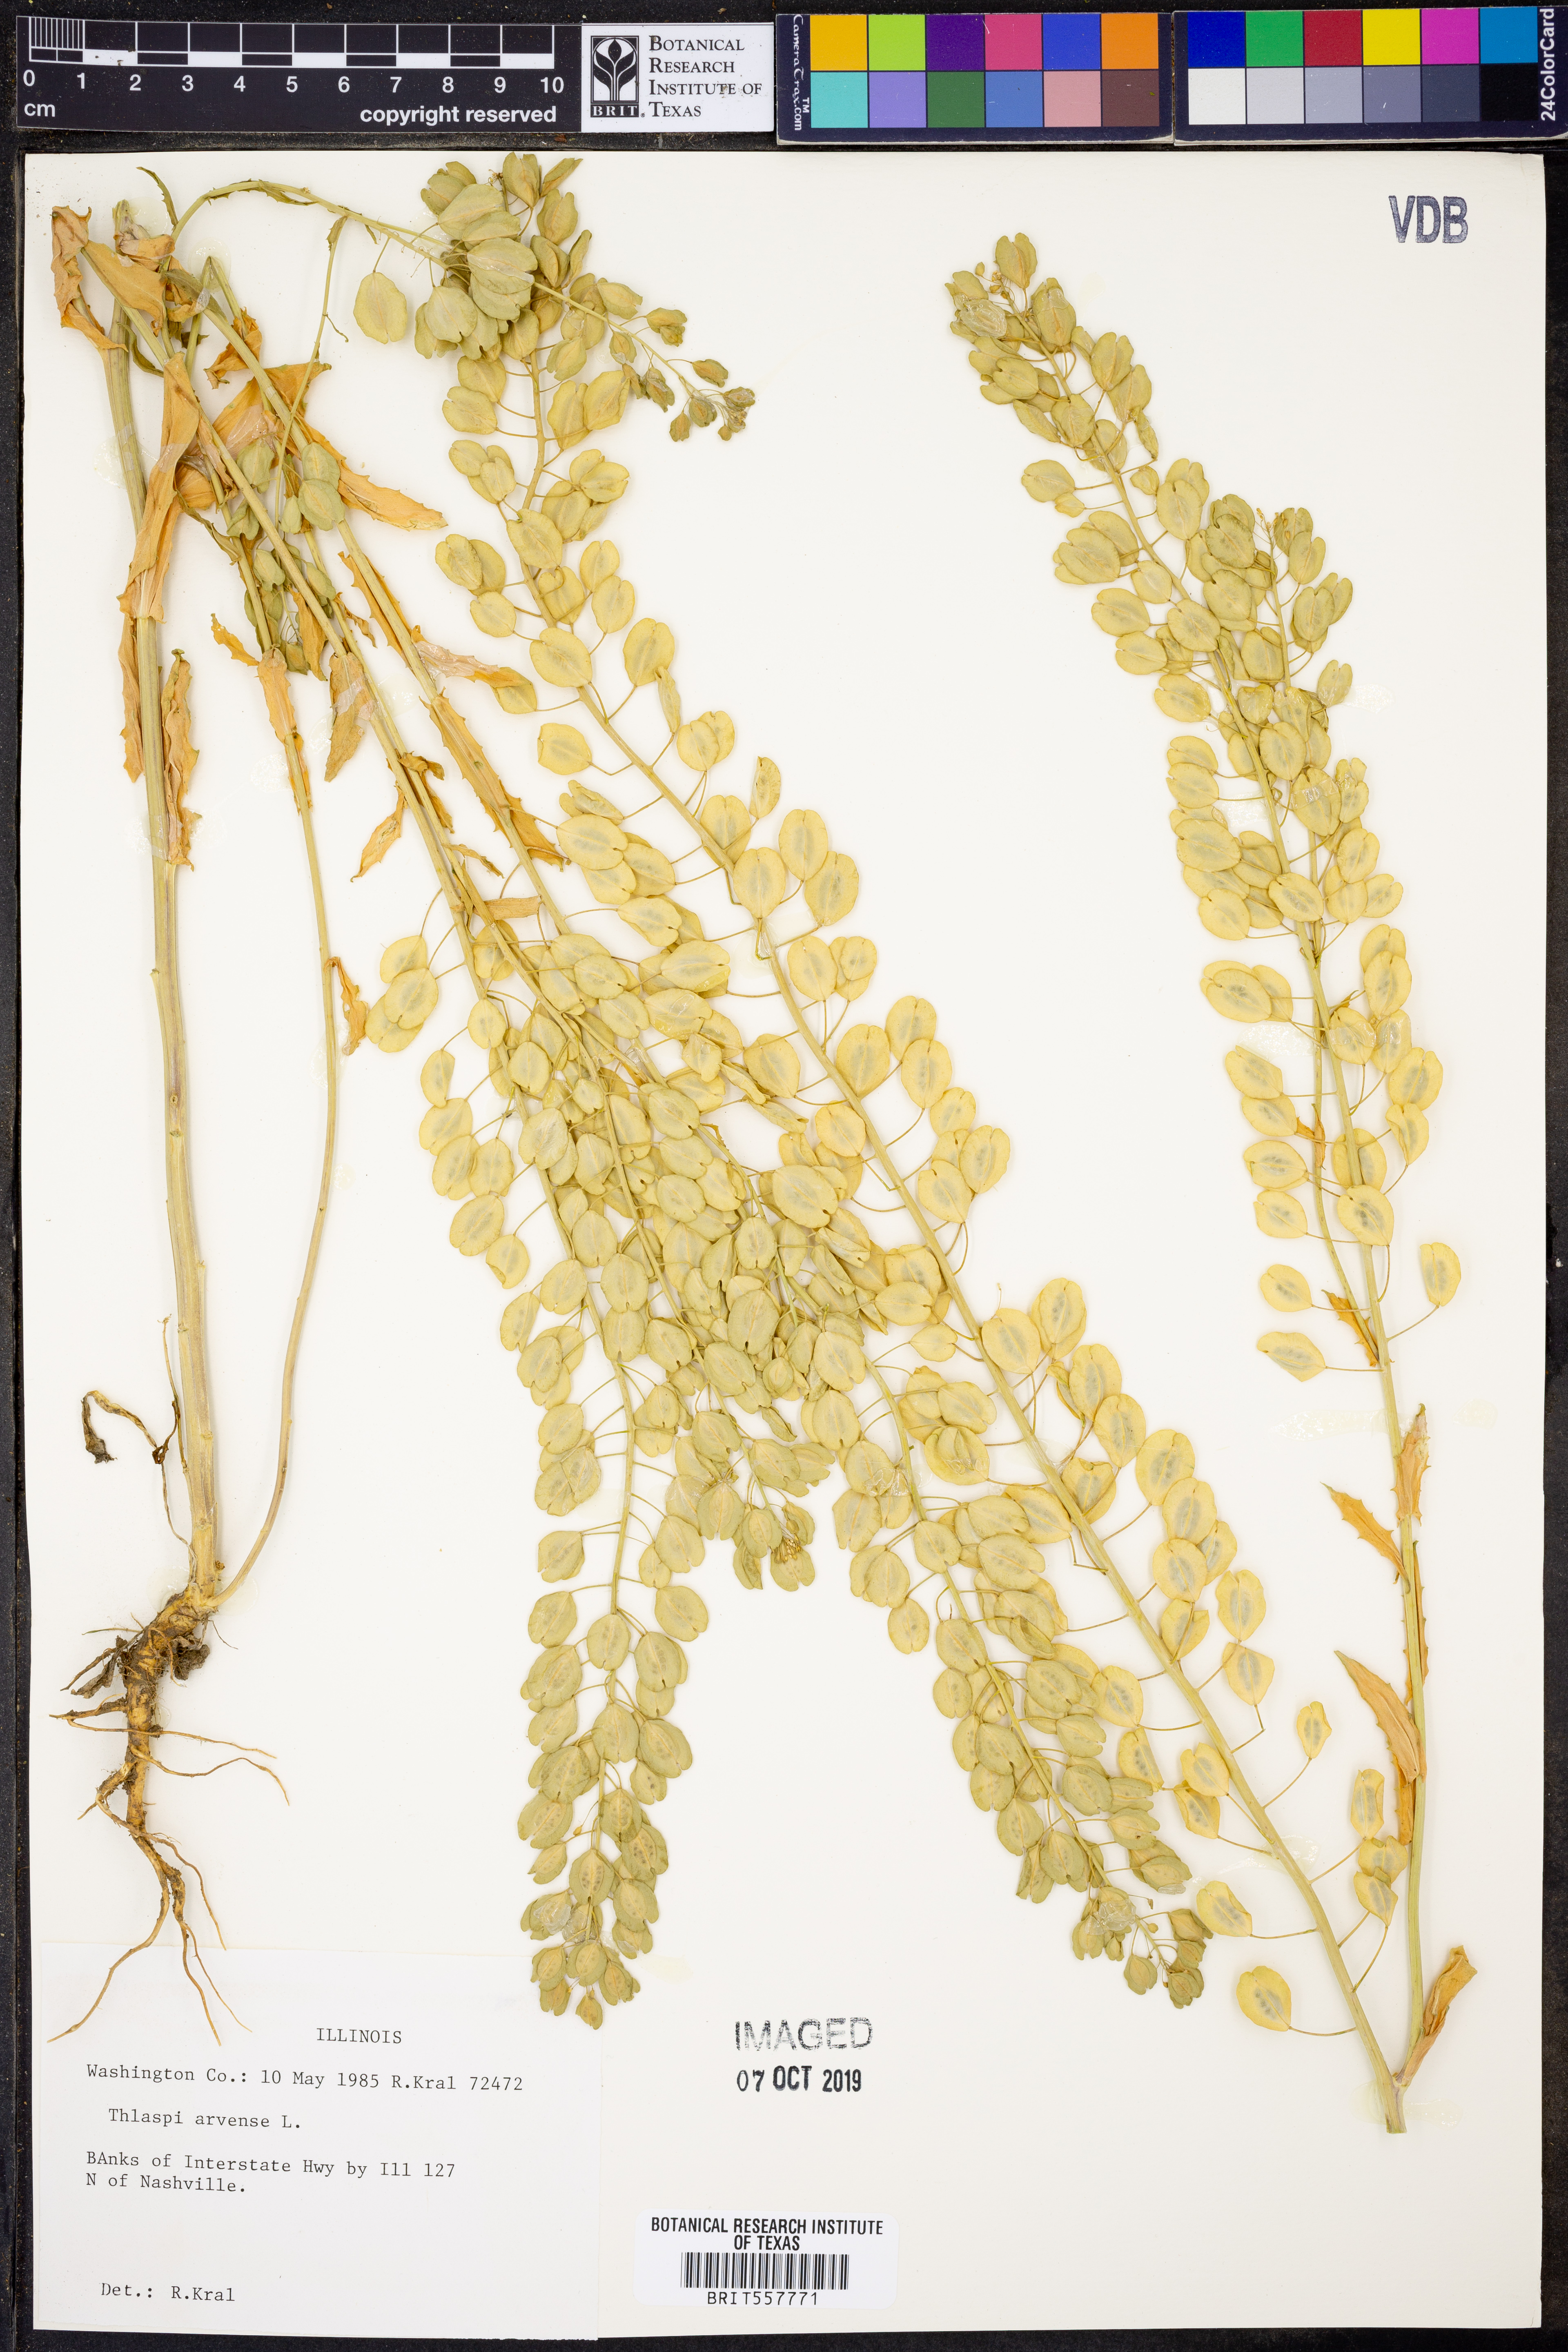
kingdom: Plantae
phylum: Tracheophyta
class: Magnoliopsida
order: Brassicales
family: Brassicaceae
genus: Thlaspi
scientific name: Thlaspi arvense
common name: Field pennycress
